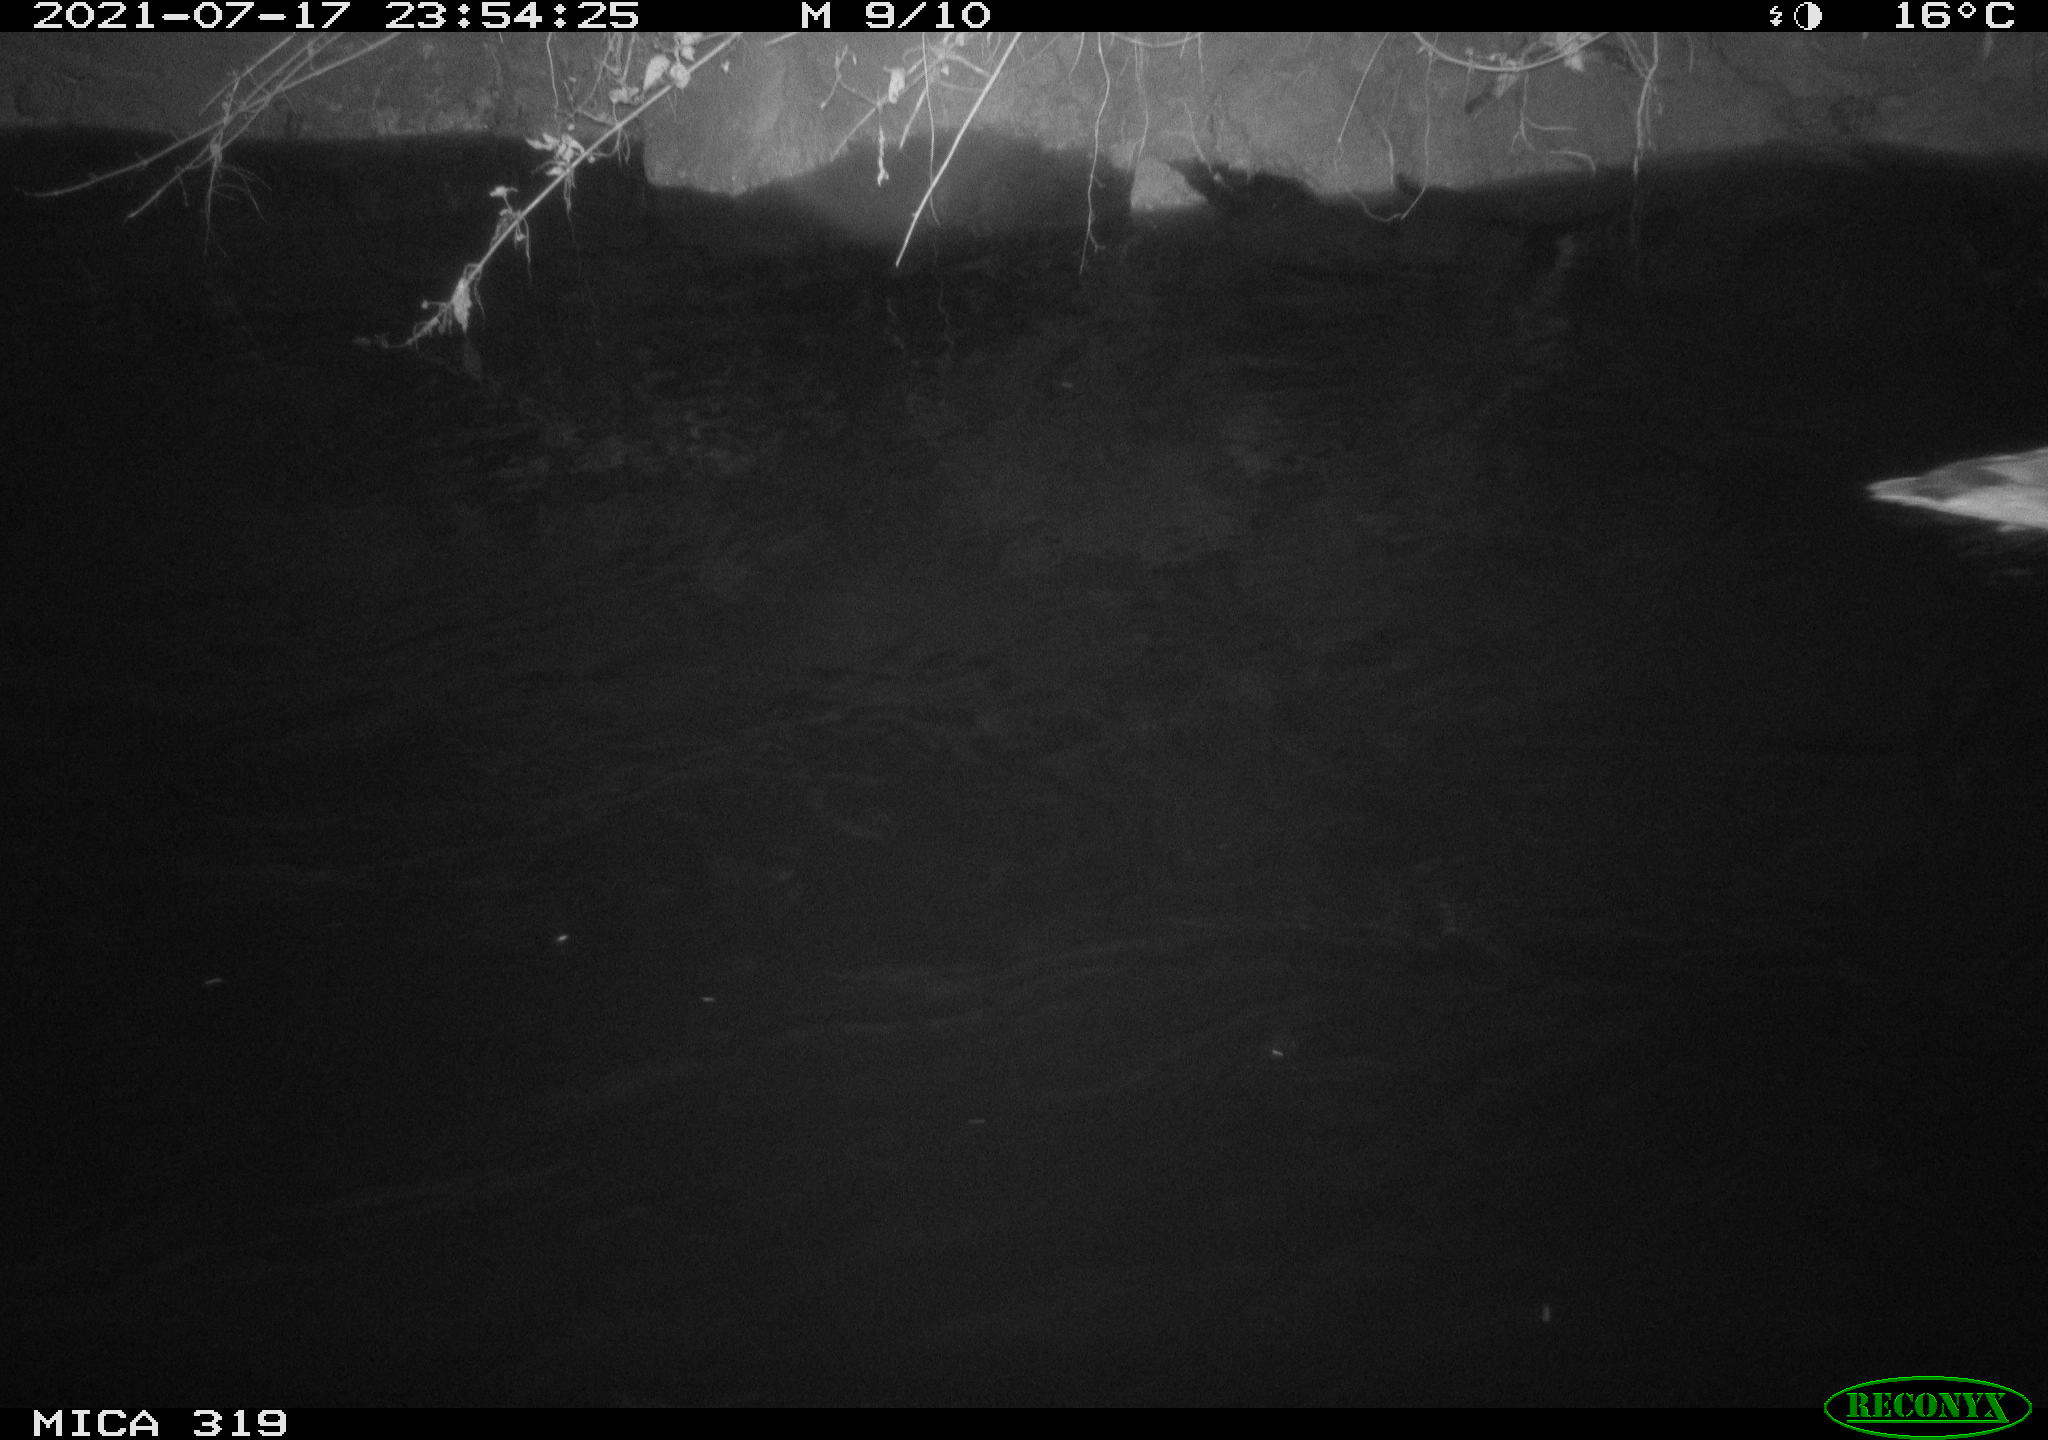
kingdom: Animalia
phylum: Chordata
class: Aves
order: Anseriformes
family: Anatidae
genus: Anas
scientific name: Anas platyrhynchos
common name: Mallard
